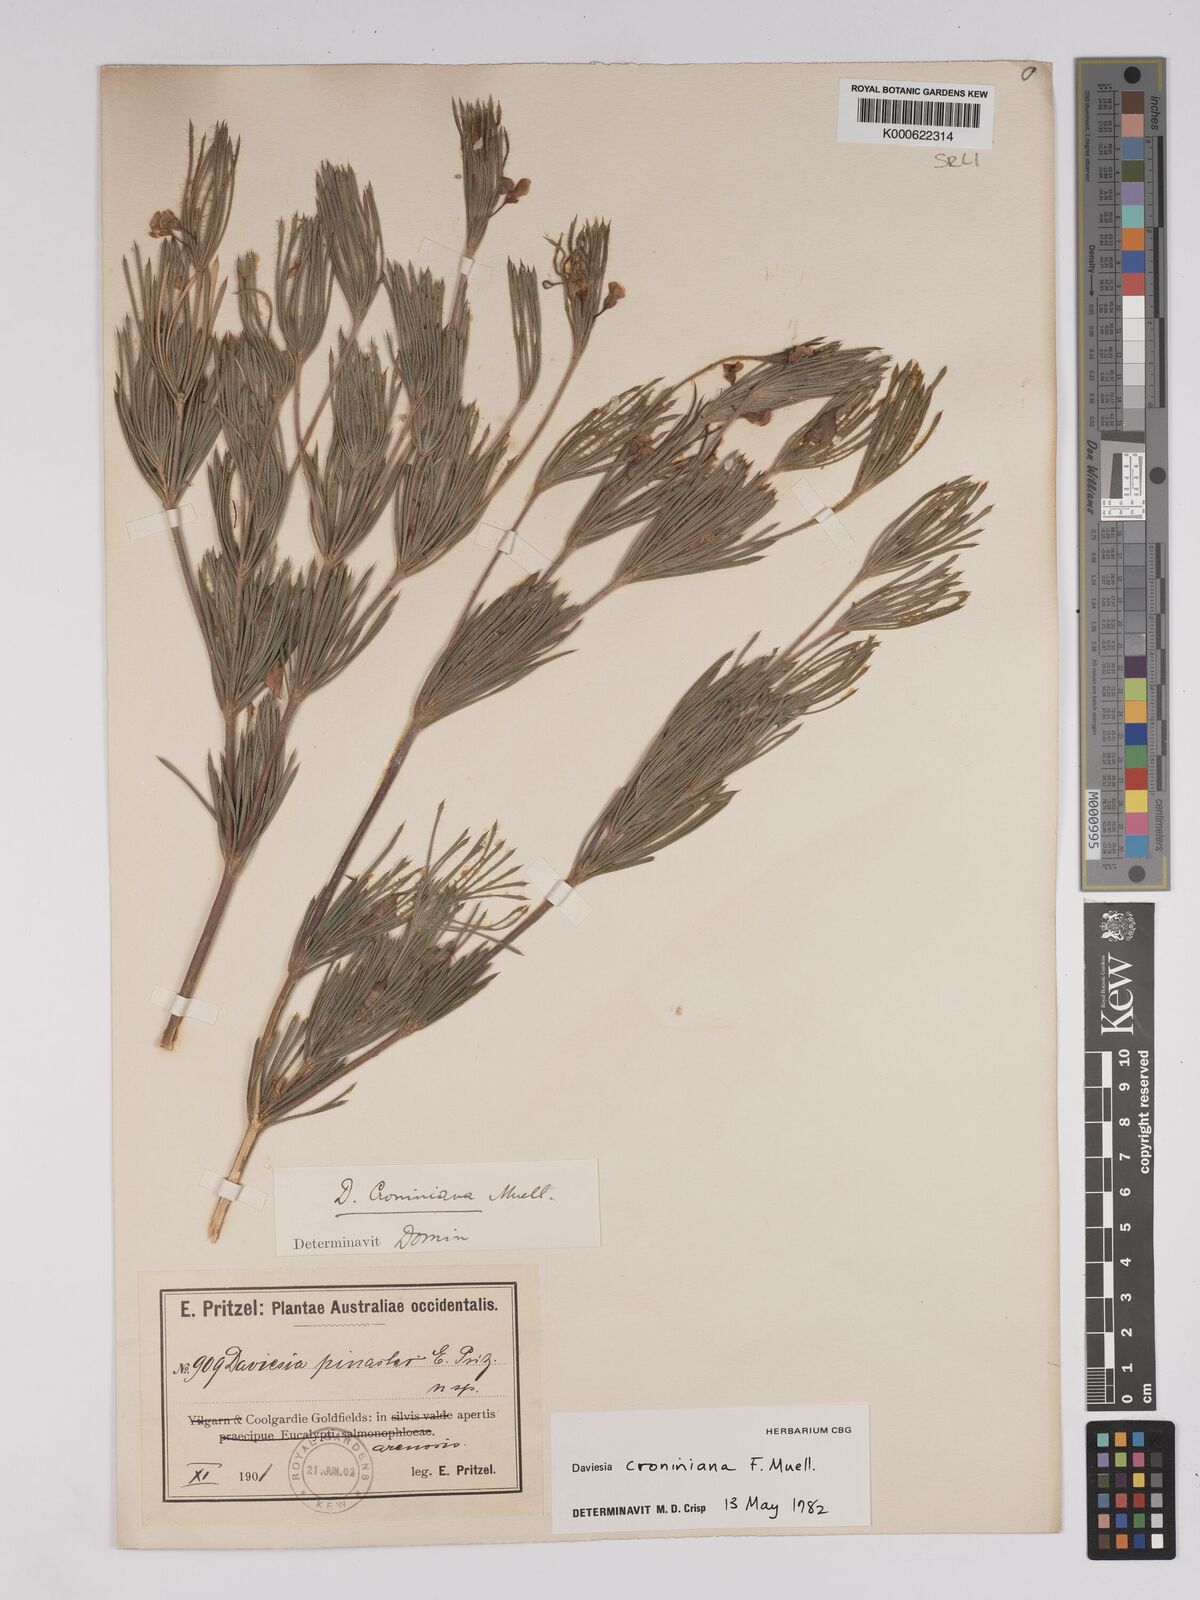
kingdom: Plantae
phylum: Tracheophyta
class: Magnoliopsida
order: Fabales
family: Fabaceae
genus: Daviesia
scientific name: Daviesia croniniana
